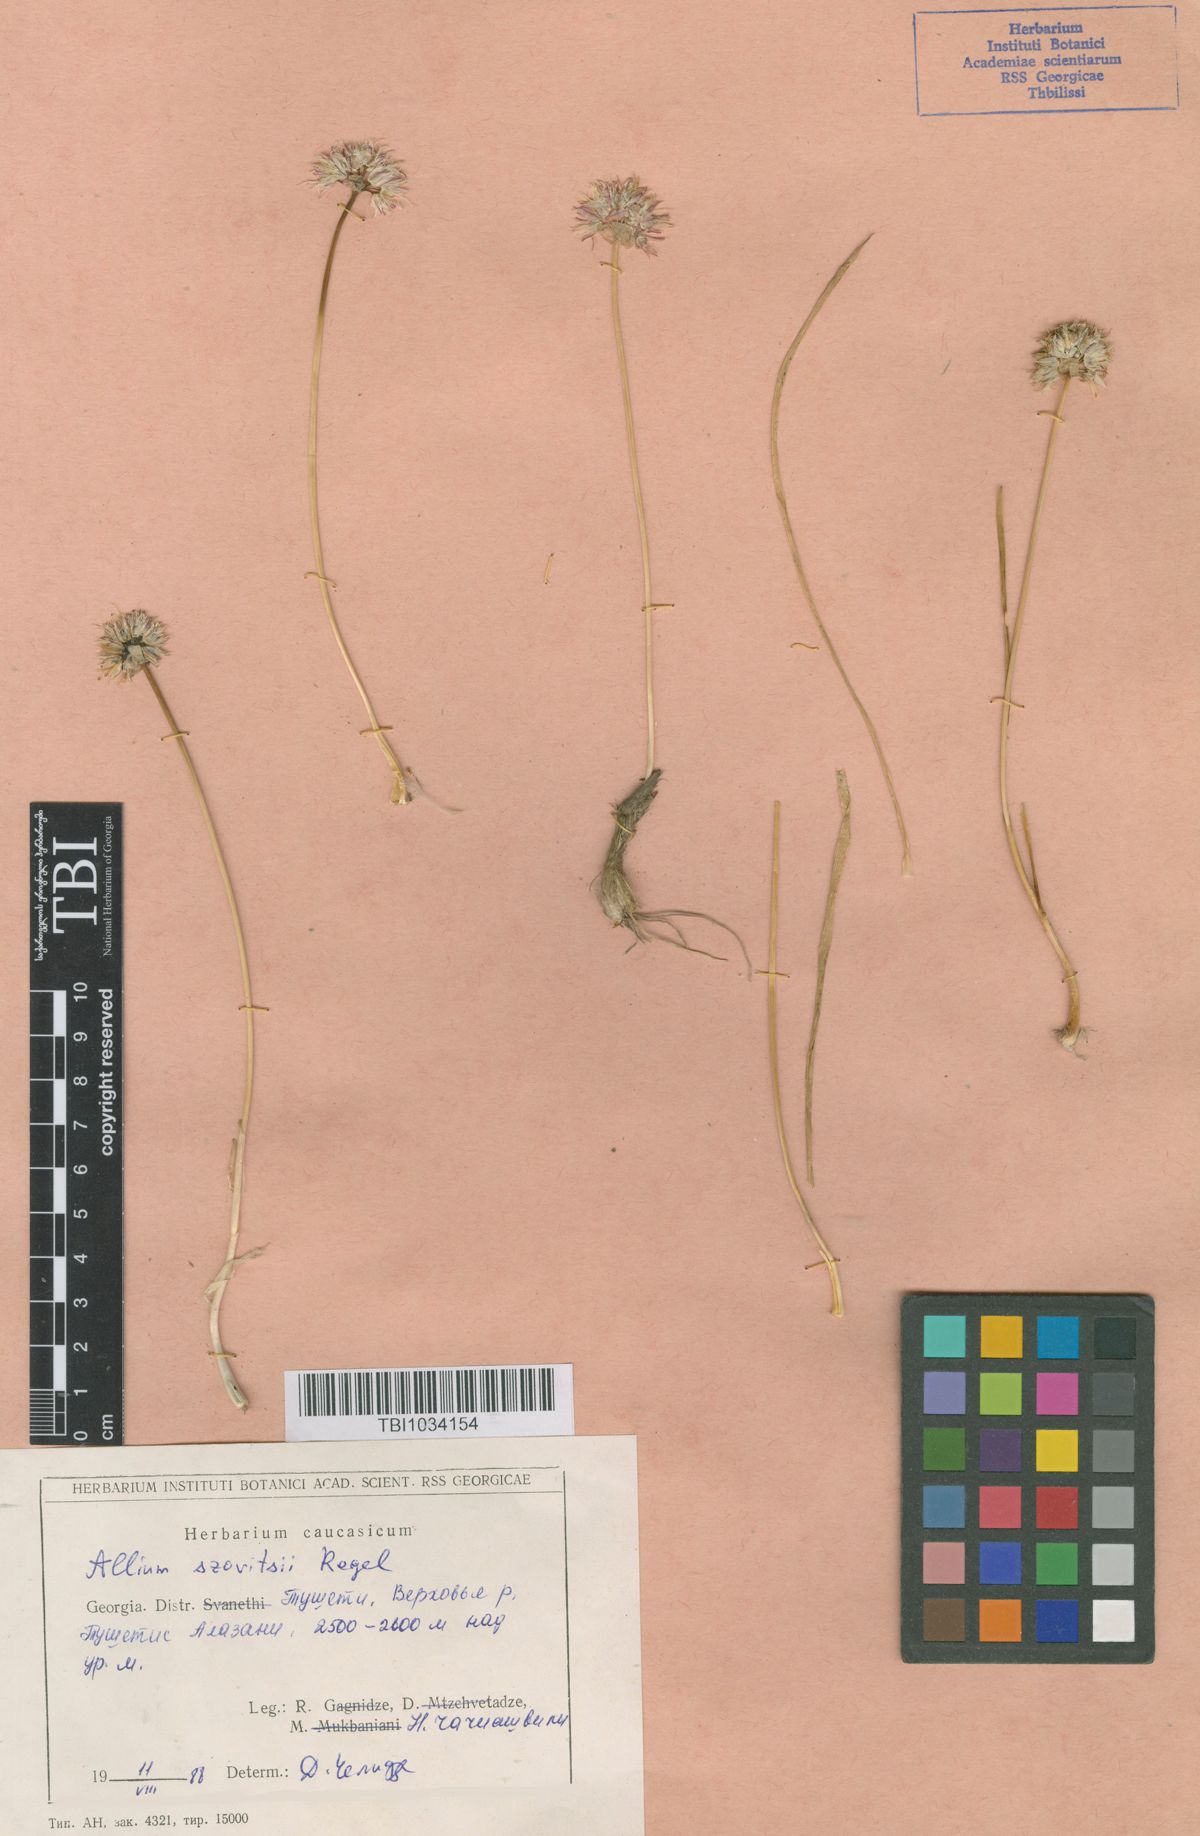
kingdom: Plantae
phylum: Tracheophyta
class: Liliopsida
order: Asparagales
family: Amaryllidaceae
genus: Allium
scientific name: Allium szovitsii
